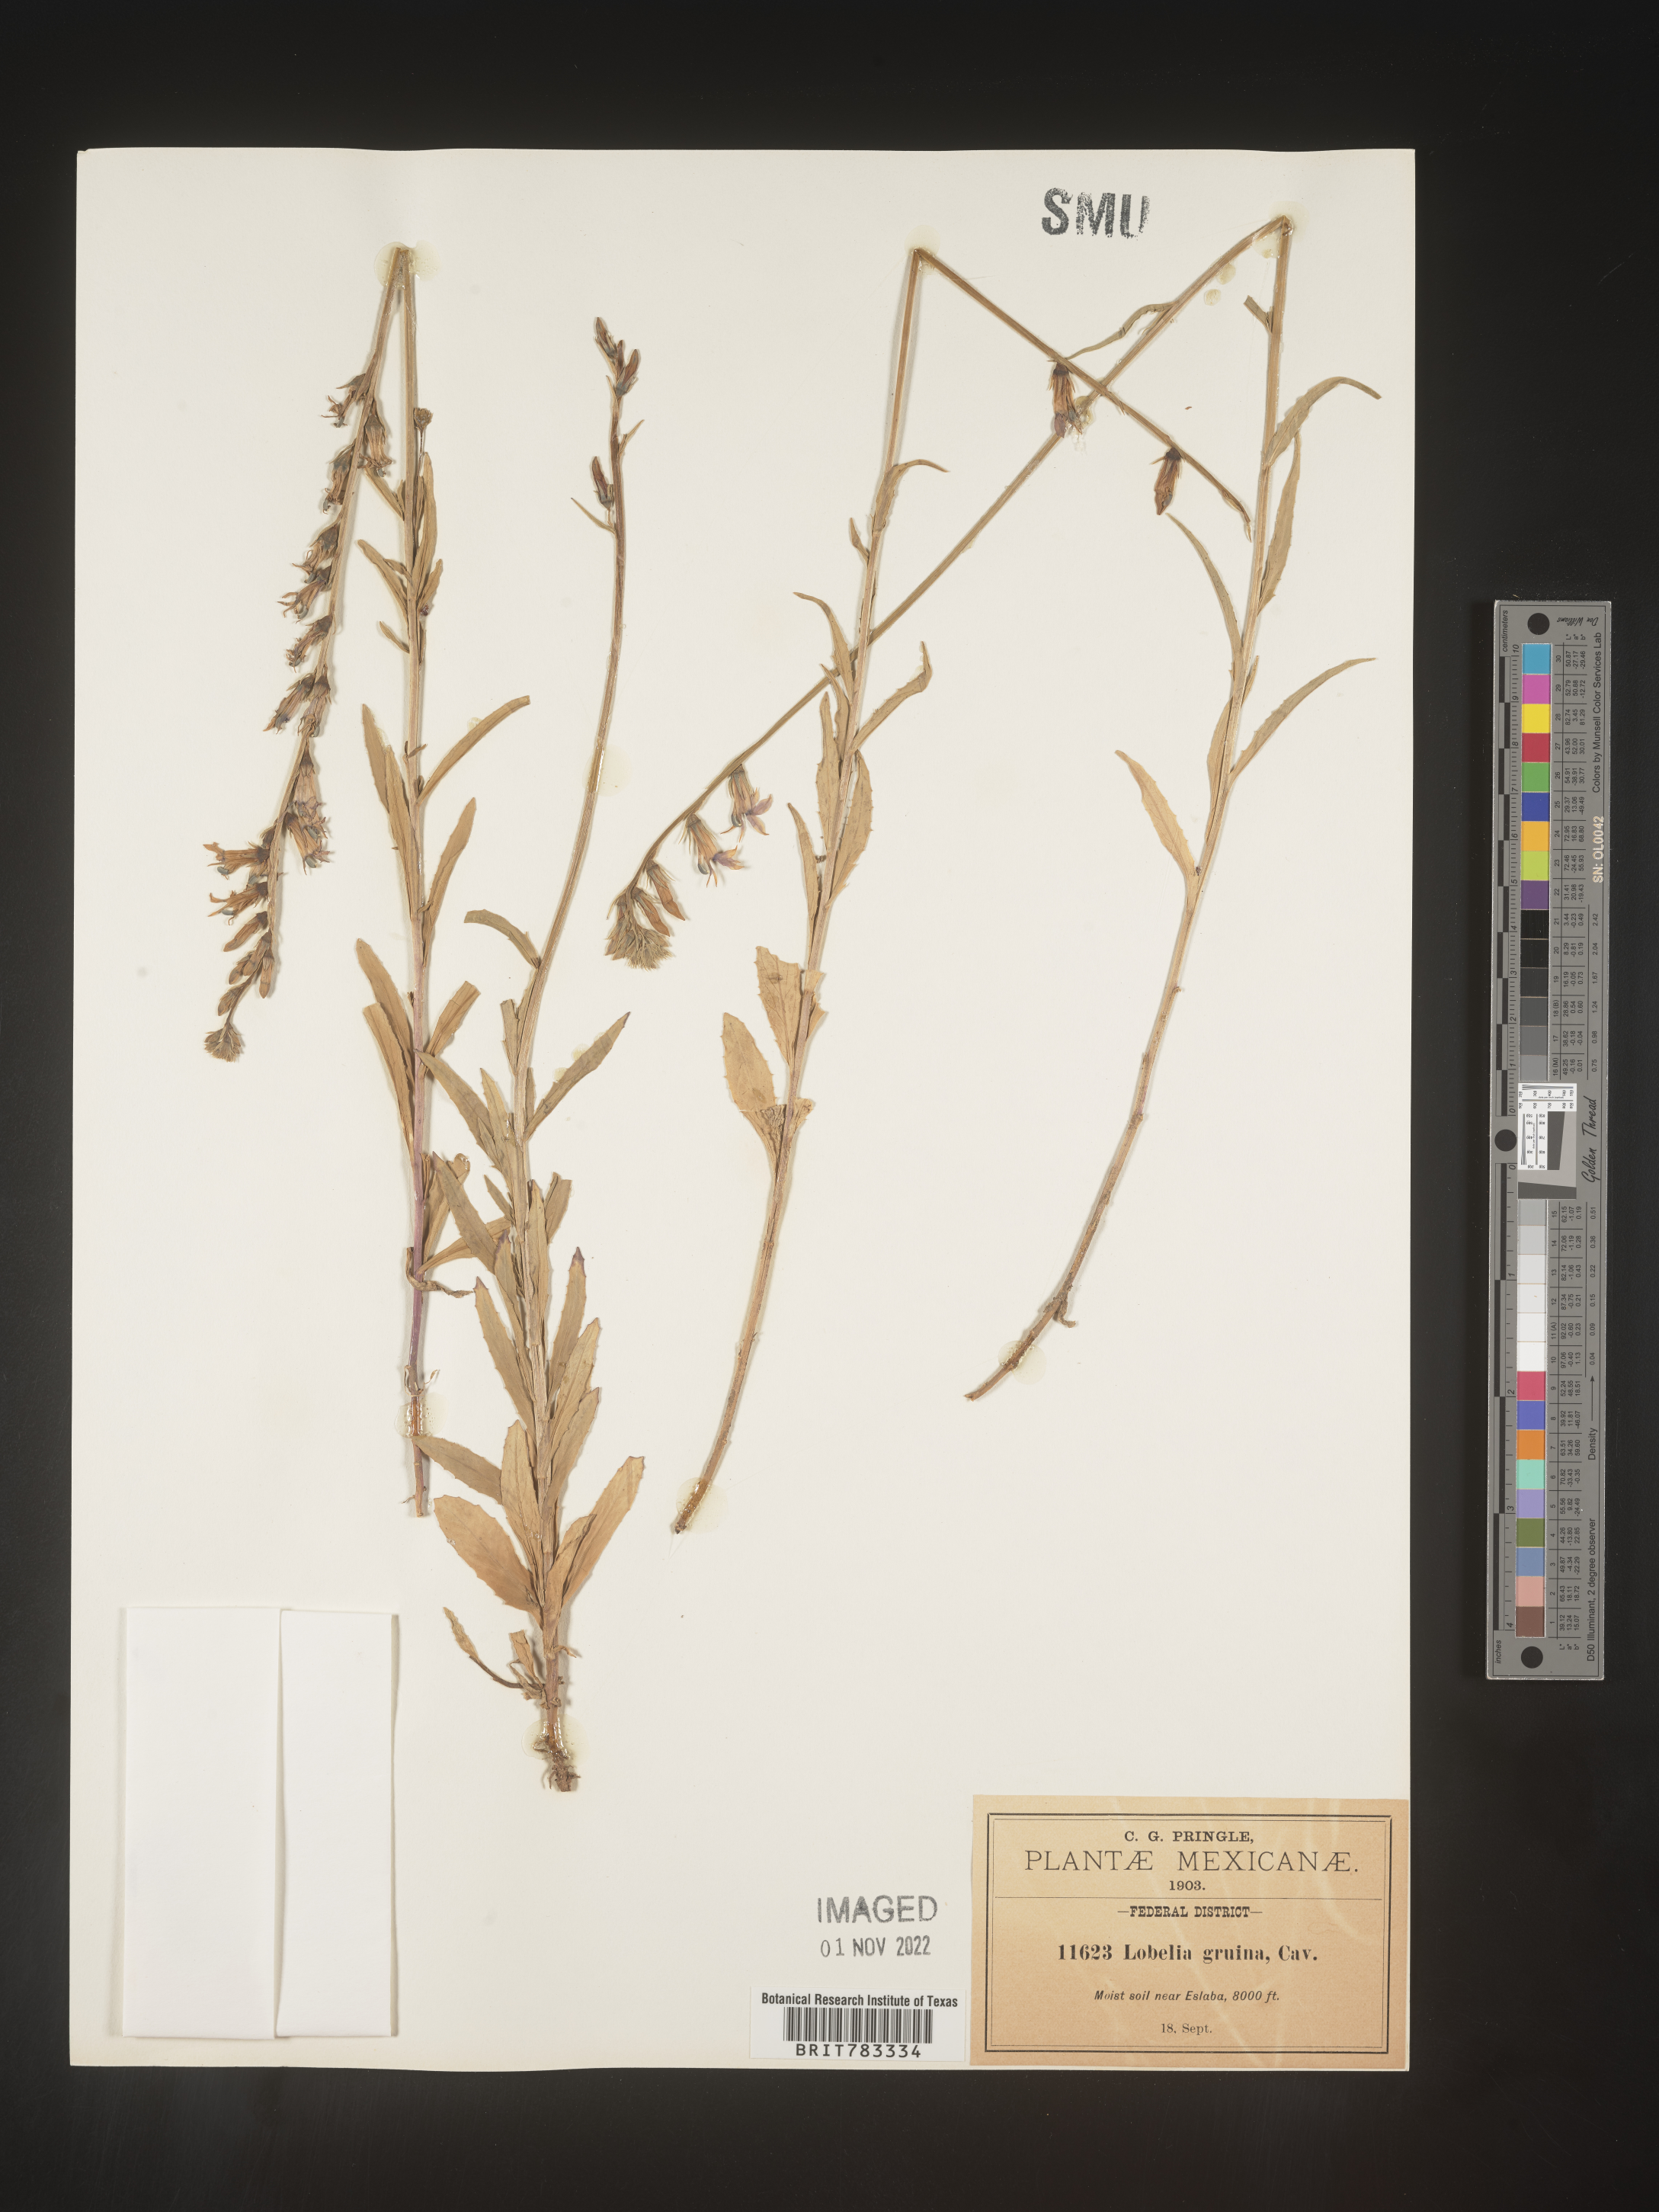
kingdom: Plantae
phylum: Tracheophyta
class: Magnoliopsida
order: Asterales
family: Campanulaceae
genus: Lobelia
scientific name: Lobelia
